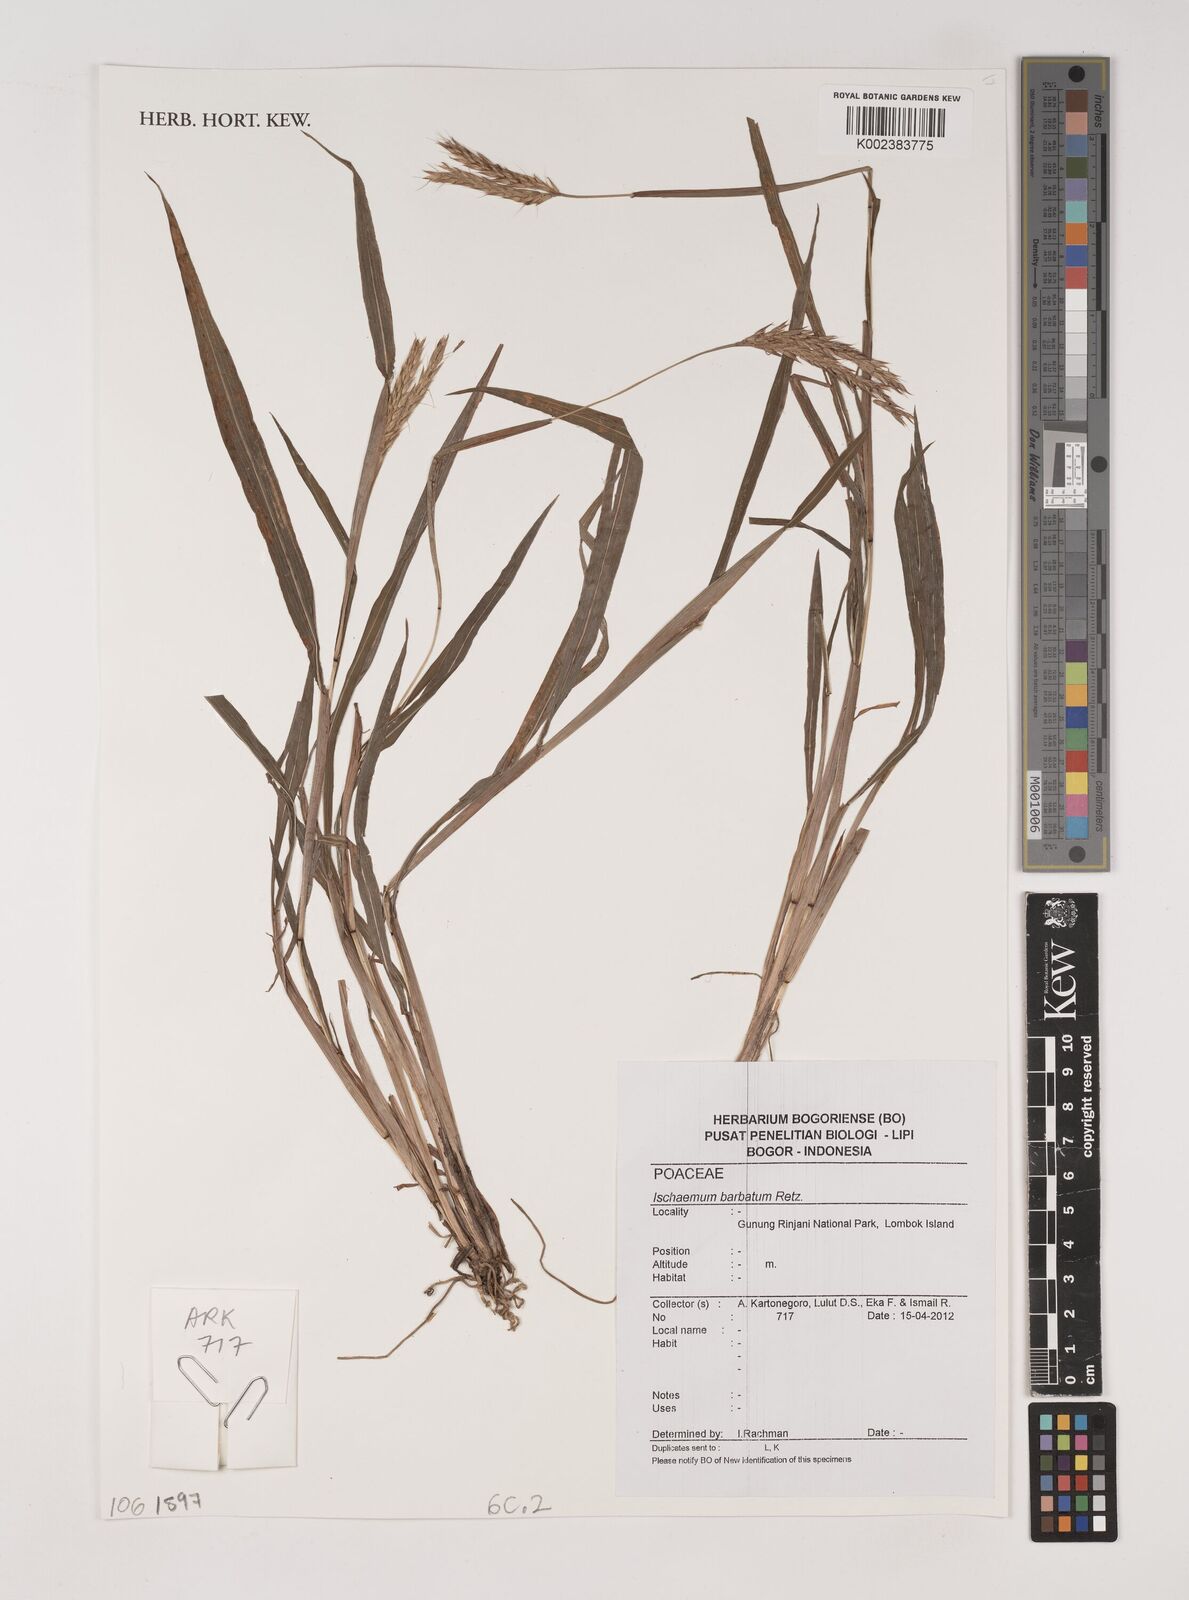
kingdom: Plantae
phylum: Tracheophyta
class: Liliopsida
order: Poales
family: Poaceae
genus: Polytrias
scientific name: Polytrias indica
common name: Indian murainagrass
